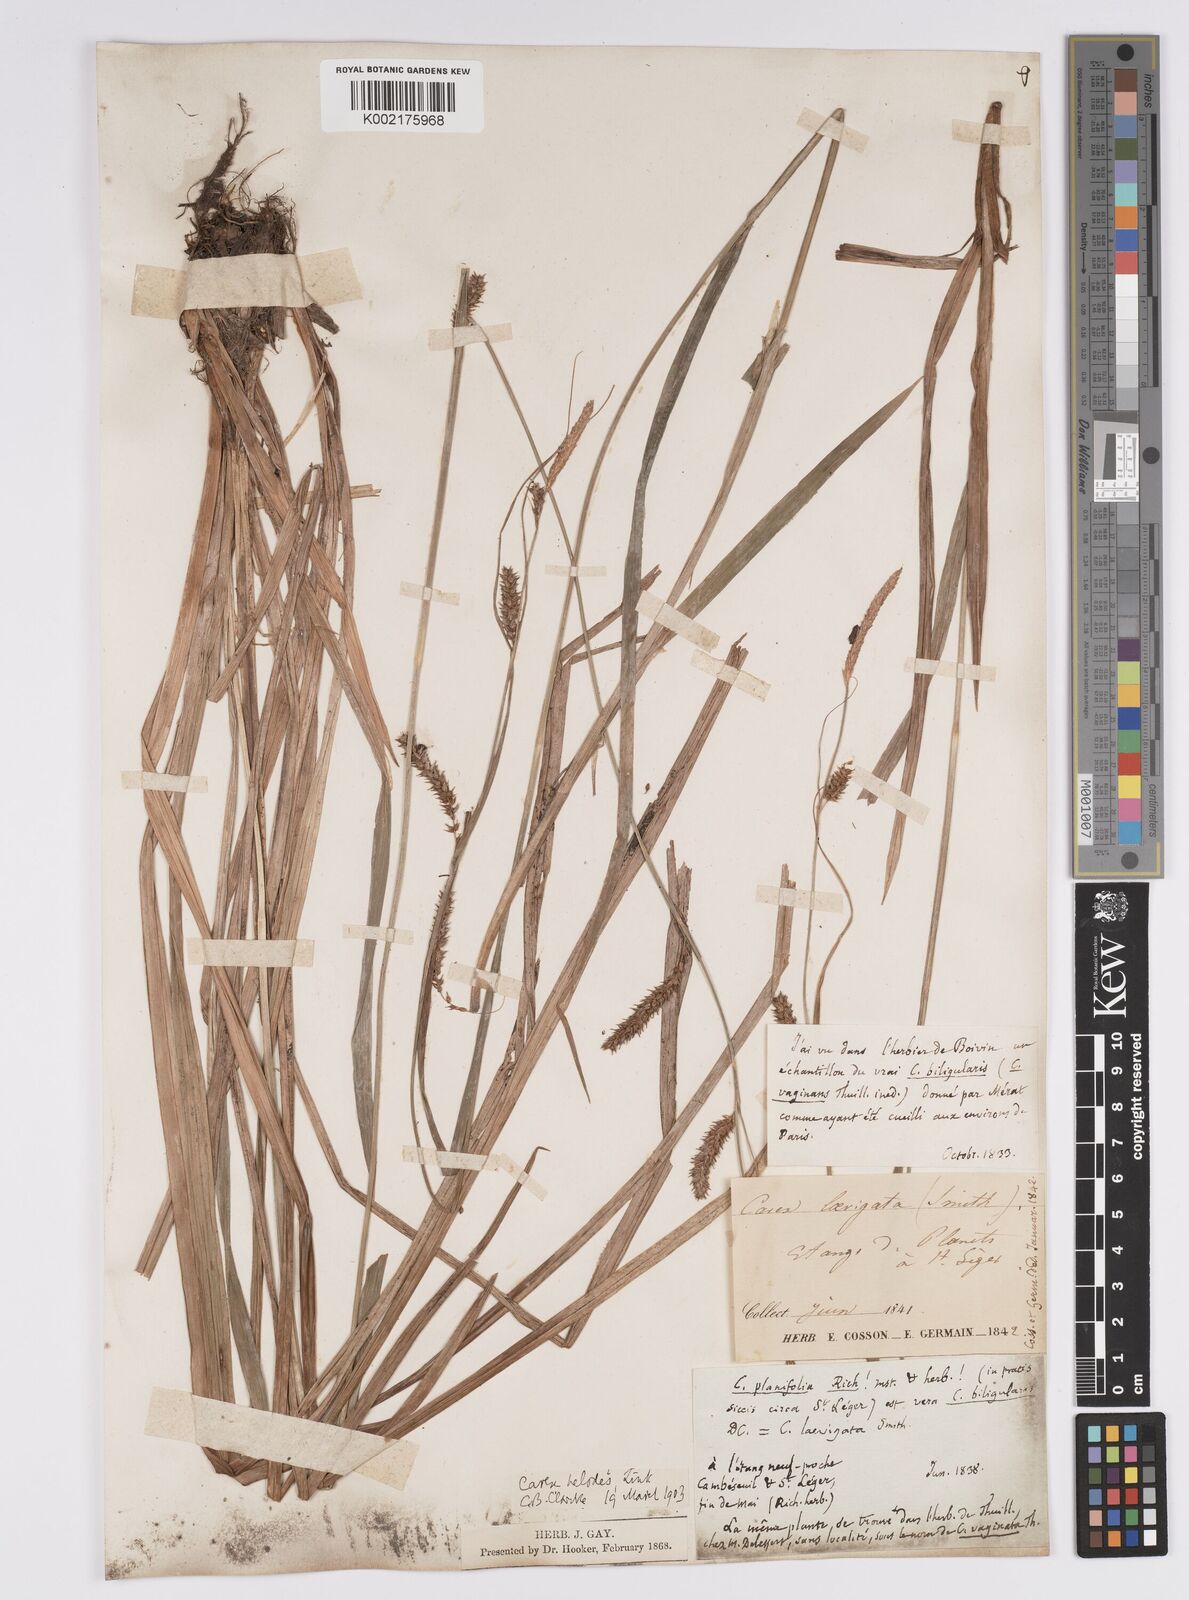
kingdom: Plantae
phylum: Tracheophyta
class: Liliopsida
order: Poales
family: Cyperaceae
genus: Carex
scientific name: Carex laevigata
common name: Smooth-stalked sedge
